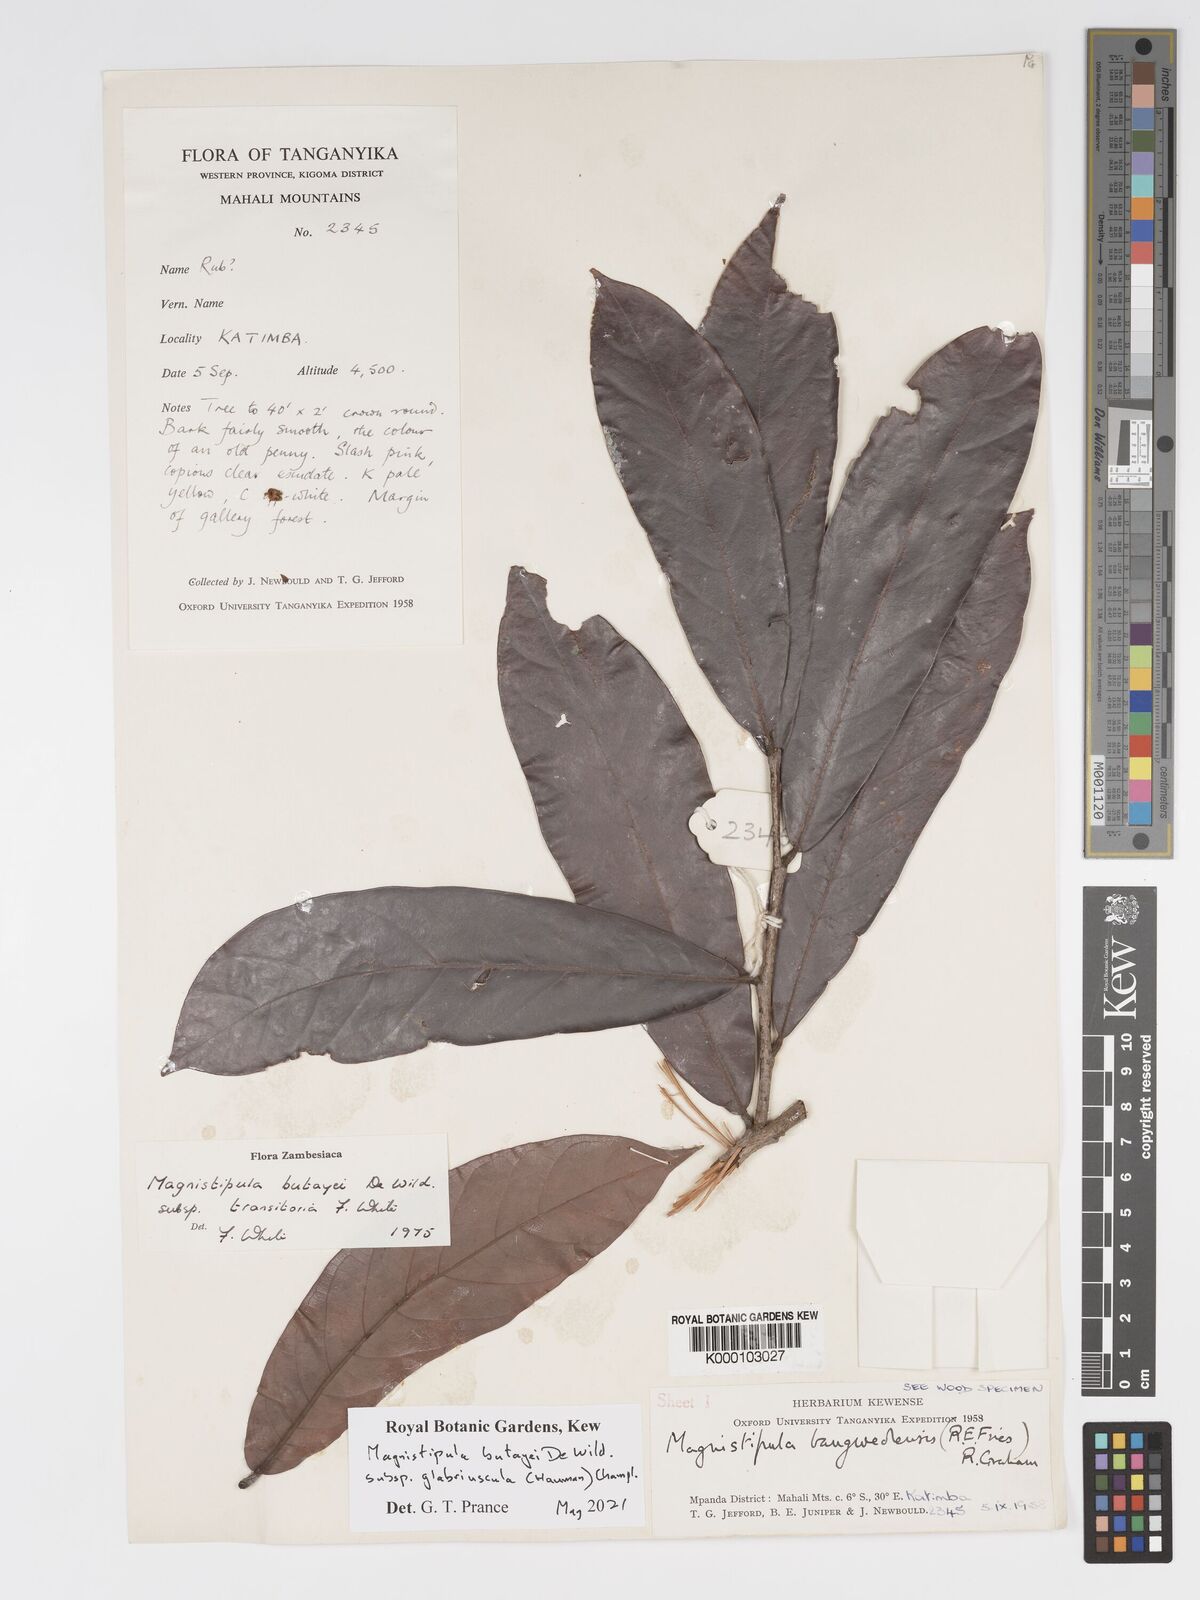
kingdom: Plantae
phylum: Tracheophyta
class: Magnoliopsida
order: Malpighiales
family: Chrysobalanaceae
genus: Magnistipula
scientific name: Magnistipula butayei
